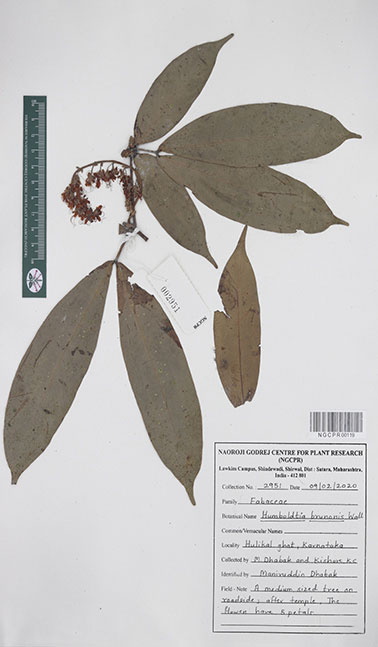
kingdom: Plantae
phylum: Tracheophyta
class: Magnoliopsida
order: Fabales
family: Fabaceae
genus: Humboldtia
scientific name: Humboldtia brunonis
